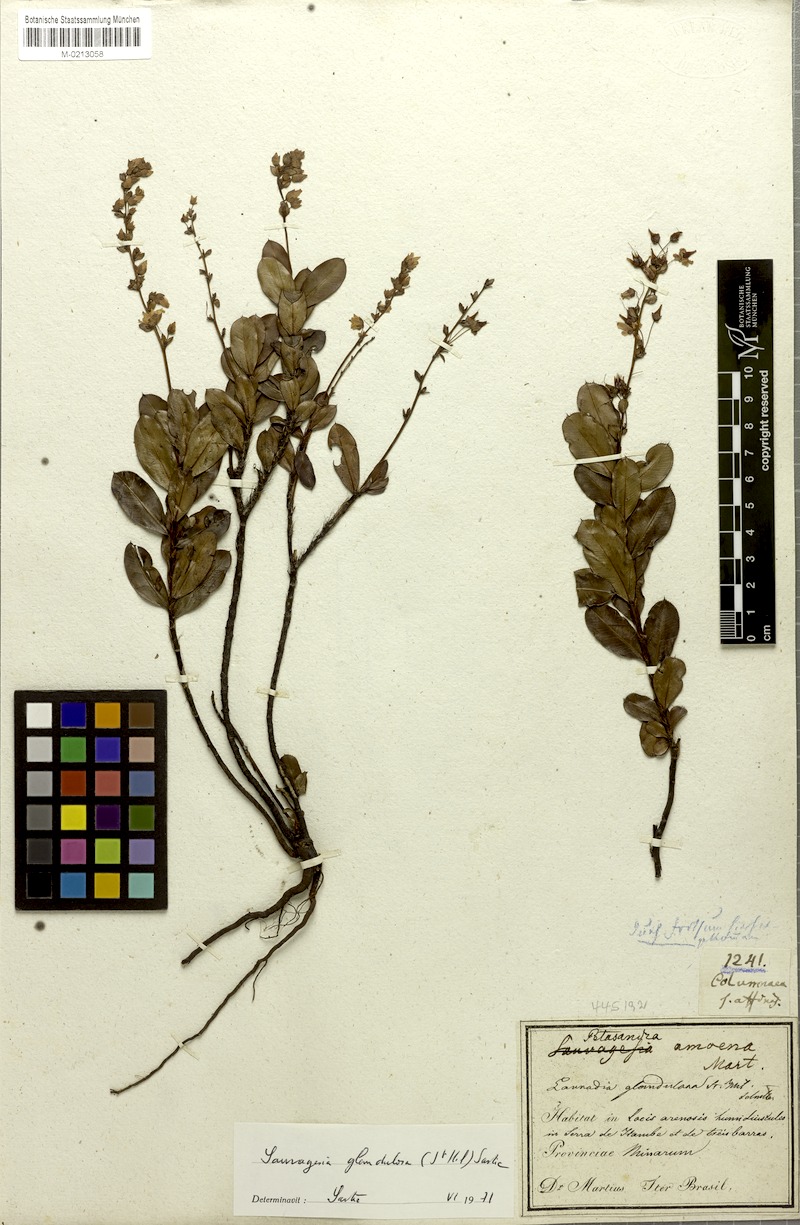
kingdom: Plantae
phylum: Tracheophyta
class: Magnoliopsida
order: Malpighiales
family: Ochnaceae
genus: Sauvagesia
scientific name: Sauvagesia glandulosa
